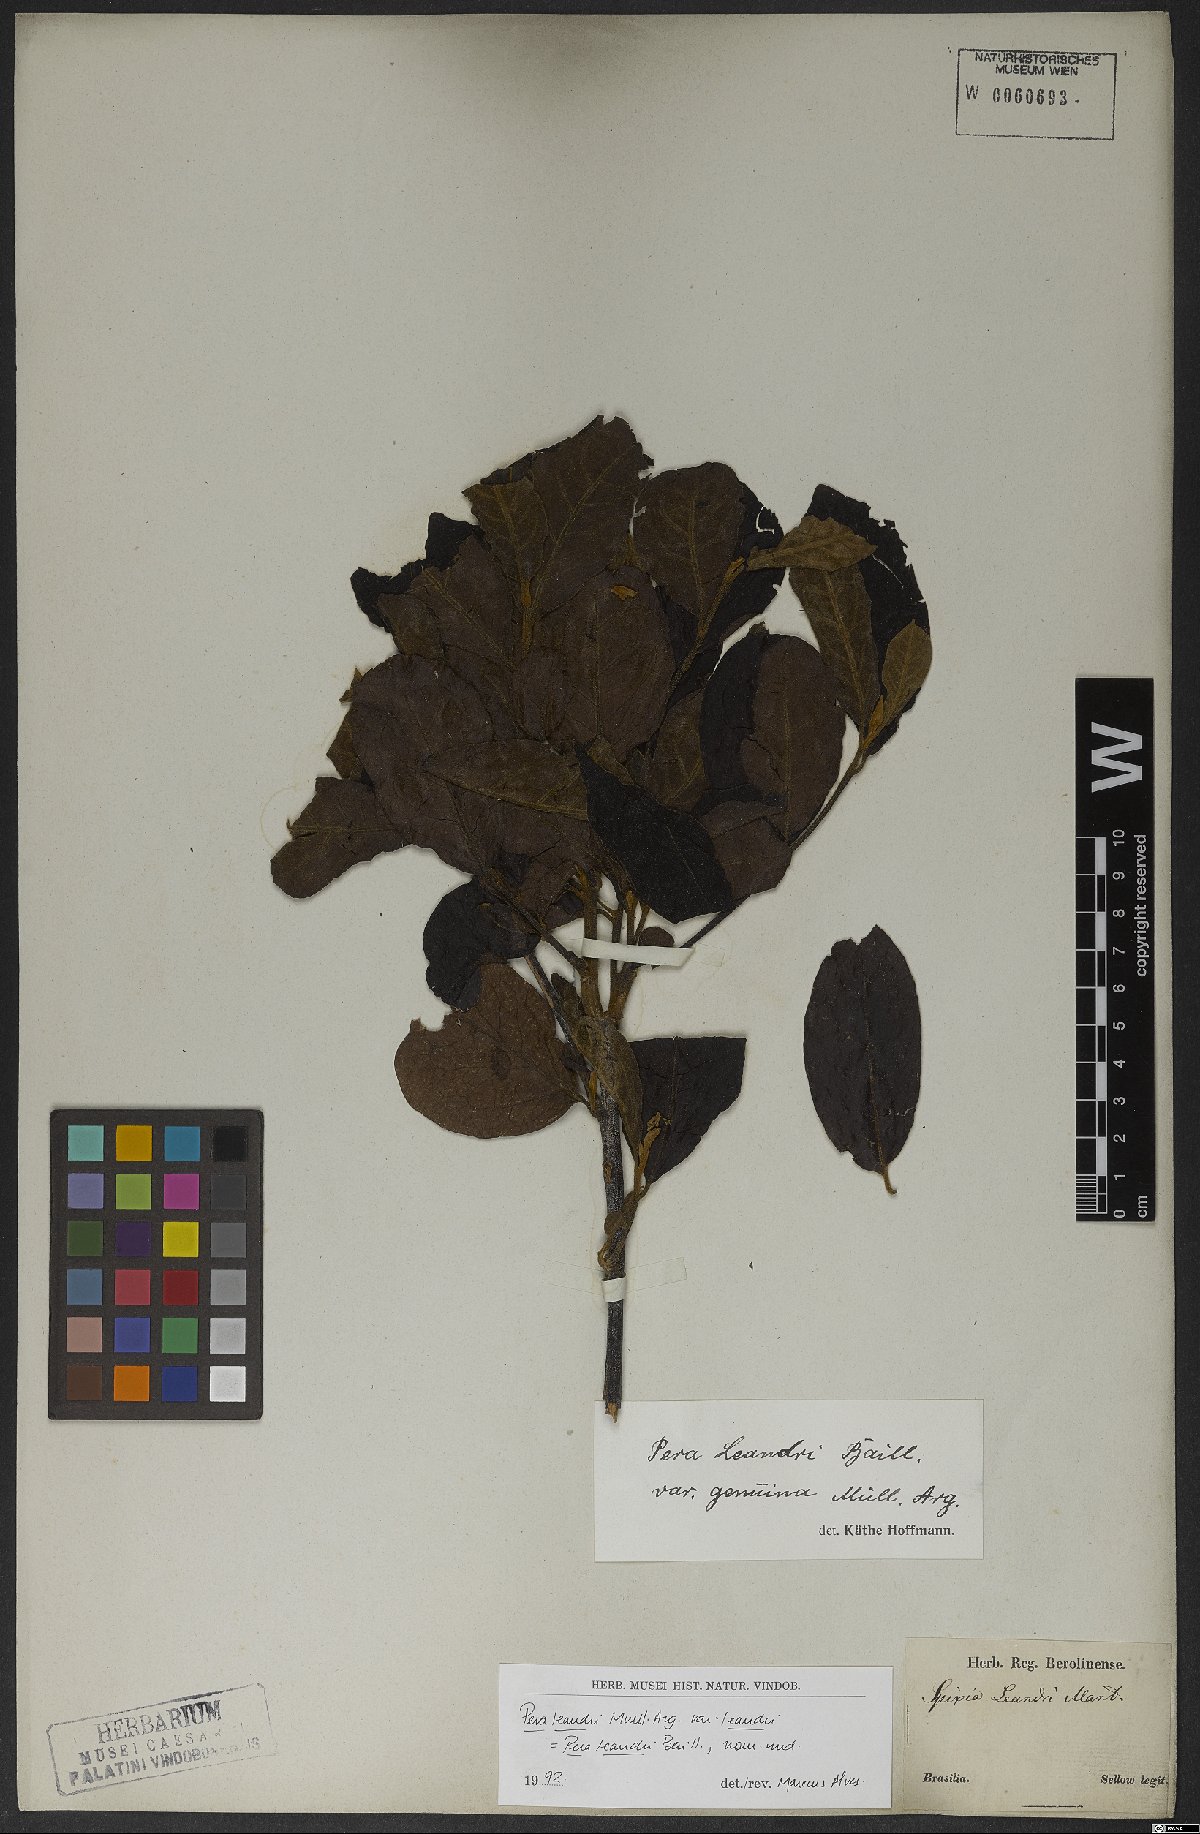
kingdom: Plantae
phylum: Tracheophyta
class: Magnoliopsida
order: Malpighiales
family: Peraceae
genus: Pera
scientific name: Pera heteranthera
